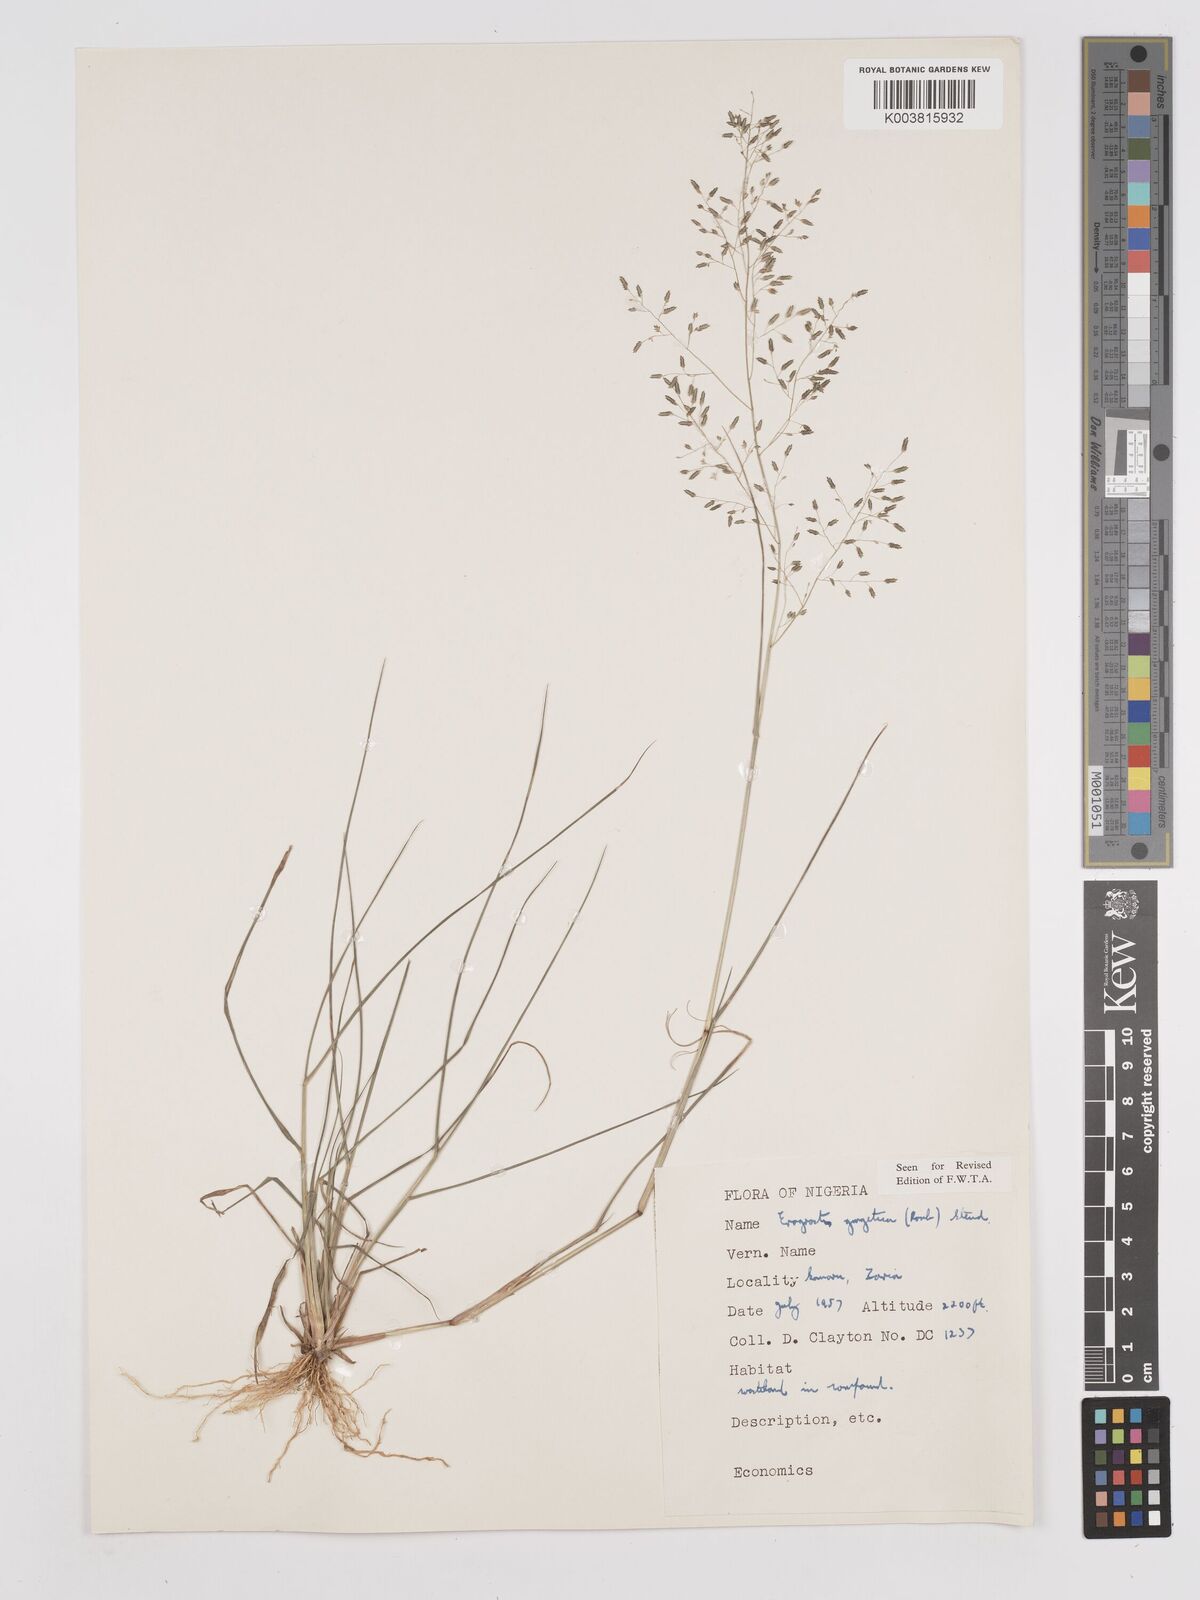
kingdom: Plantae
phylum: Tracheophyta
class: Liliopsida
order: Poales
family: Poaceae
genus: Eragrostis
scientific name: Eragrostis gangetica
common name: Slimflower lovegrass
